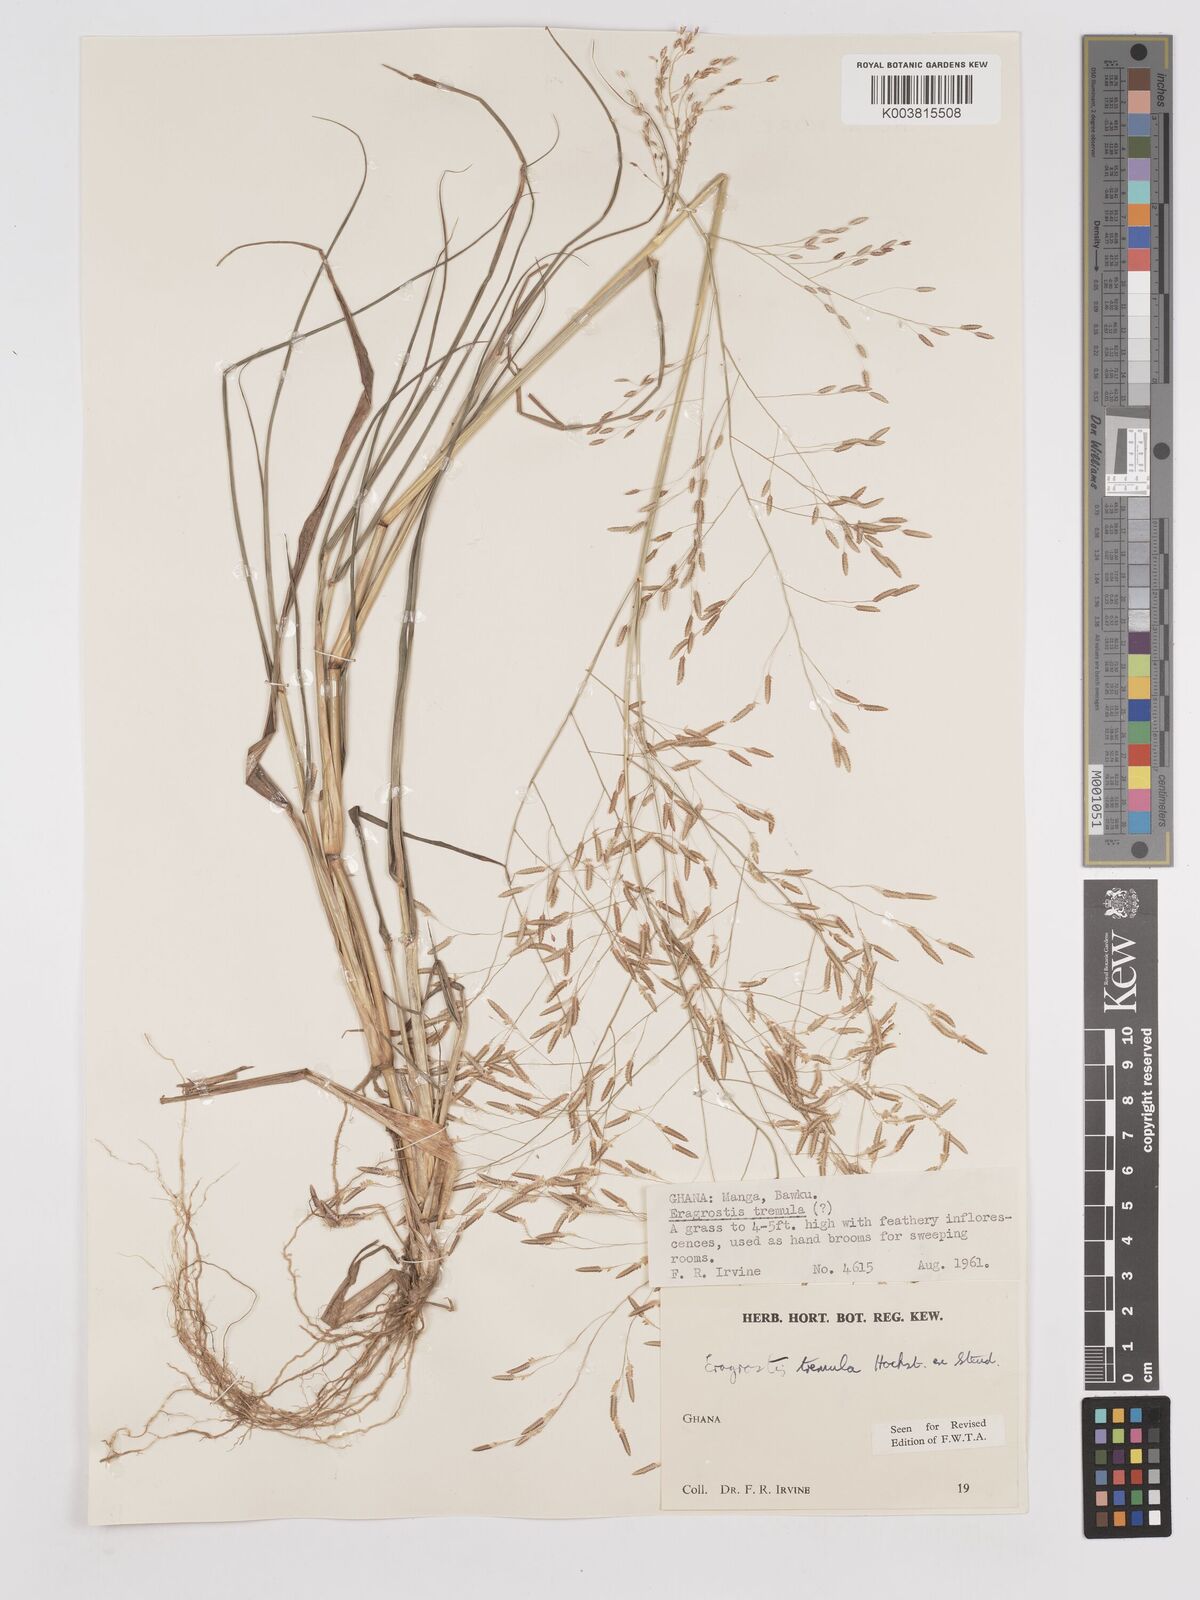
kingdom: Plantae
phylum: Tracheophyta
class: Liliopsida
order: Poales
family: Poaceae
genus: Eragrostis
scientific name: Eragrostis tremula
